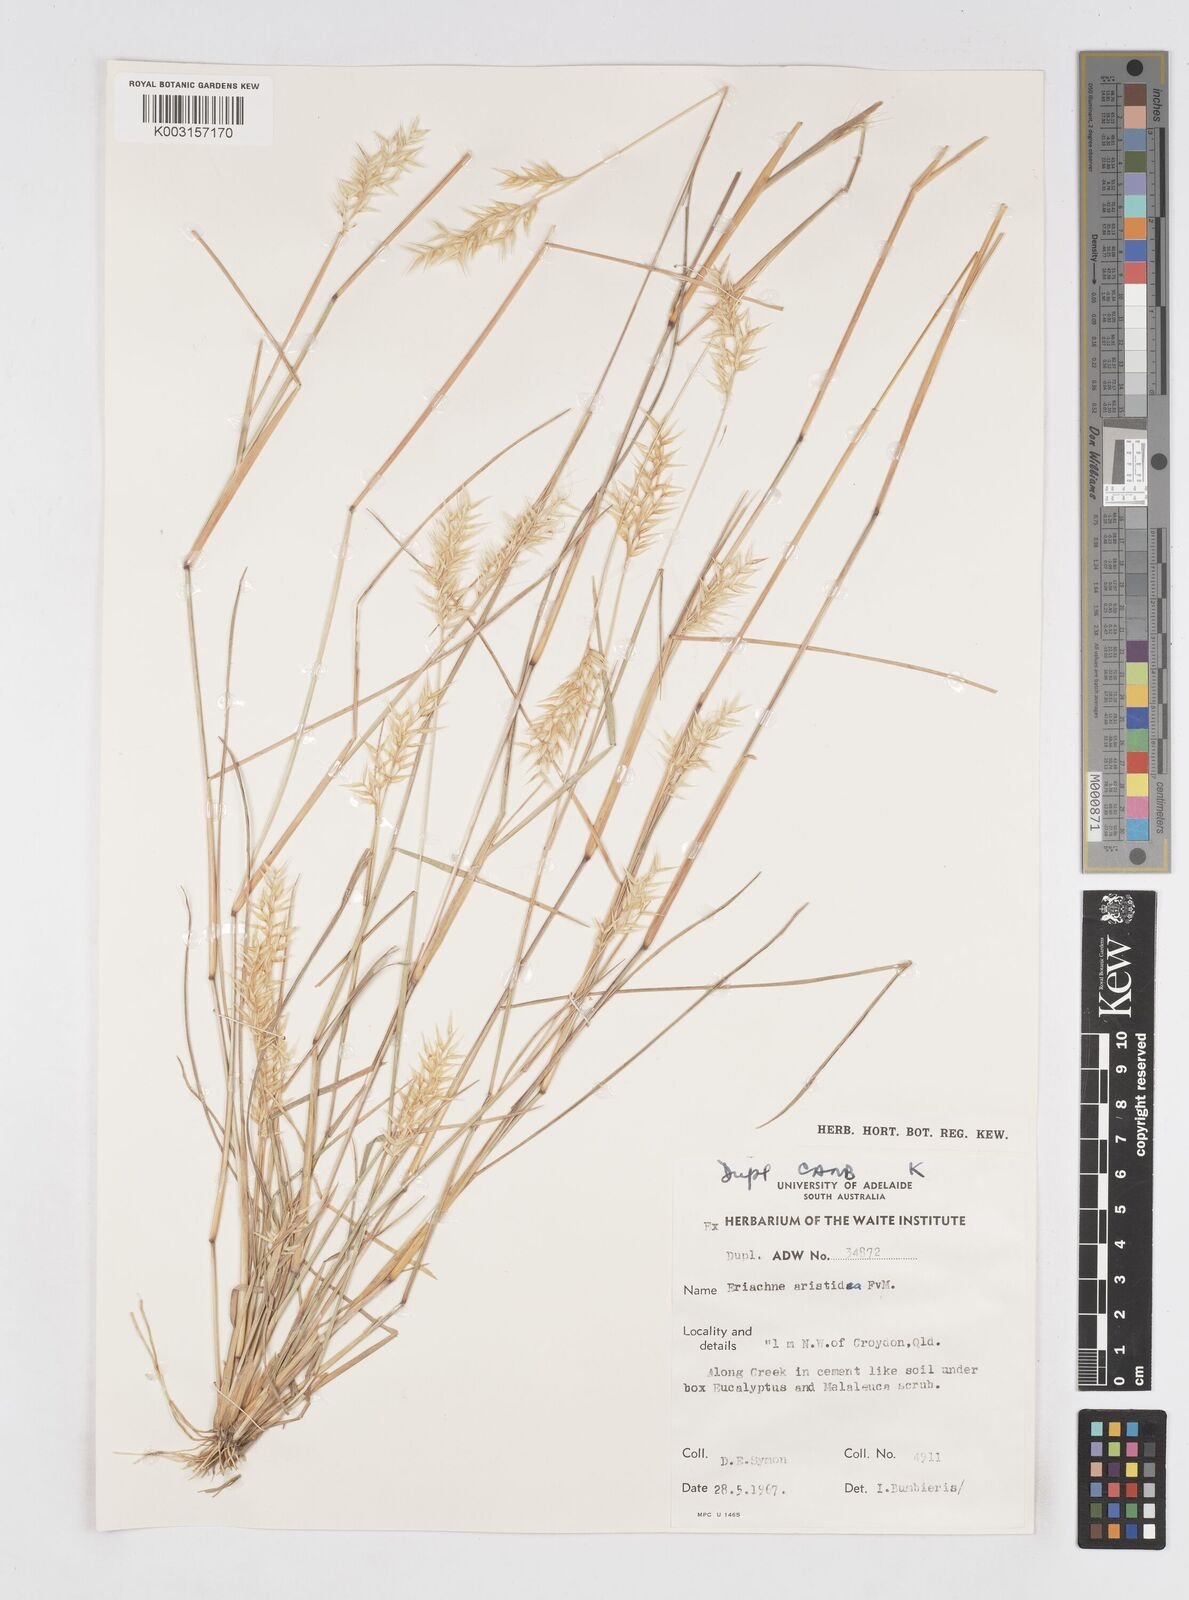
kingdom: Plantae
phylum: Tracheophyta
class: Liliopsida
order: Poales
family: Poaceae
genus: Eriachne
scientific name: Eriachne aristidea
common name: Three-awn wanderrie grass
